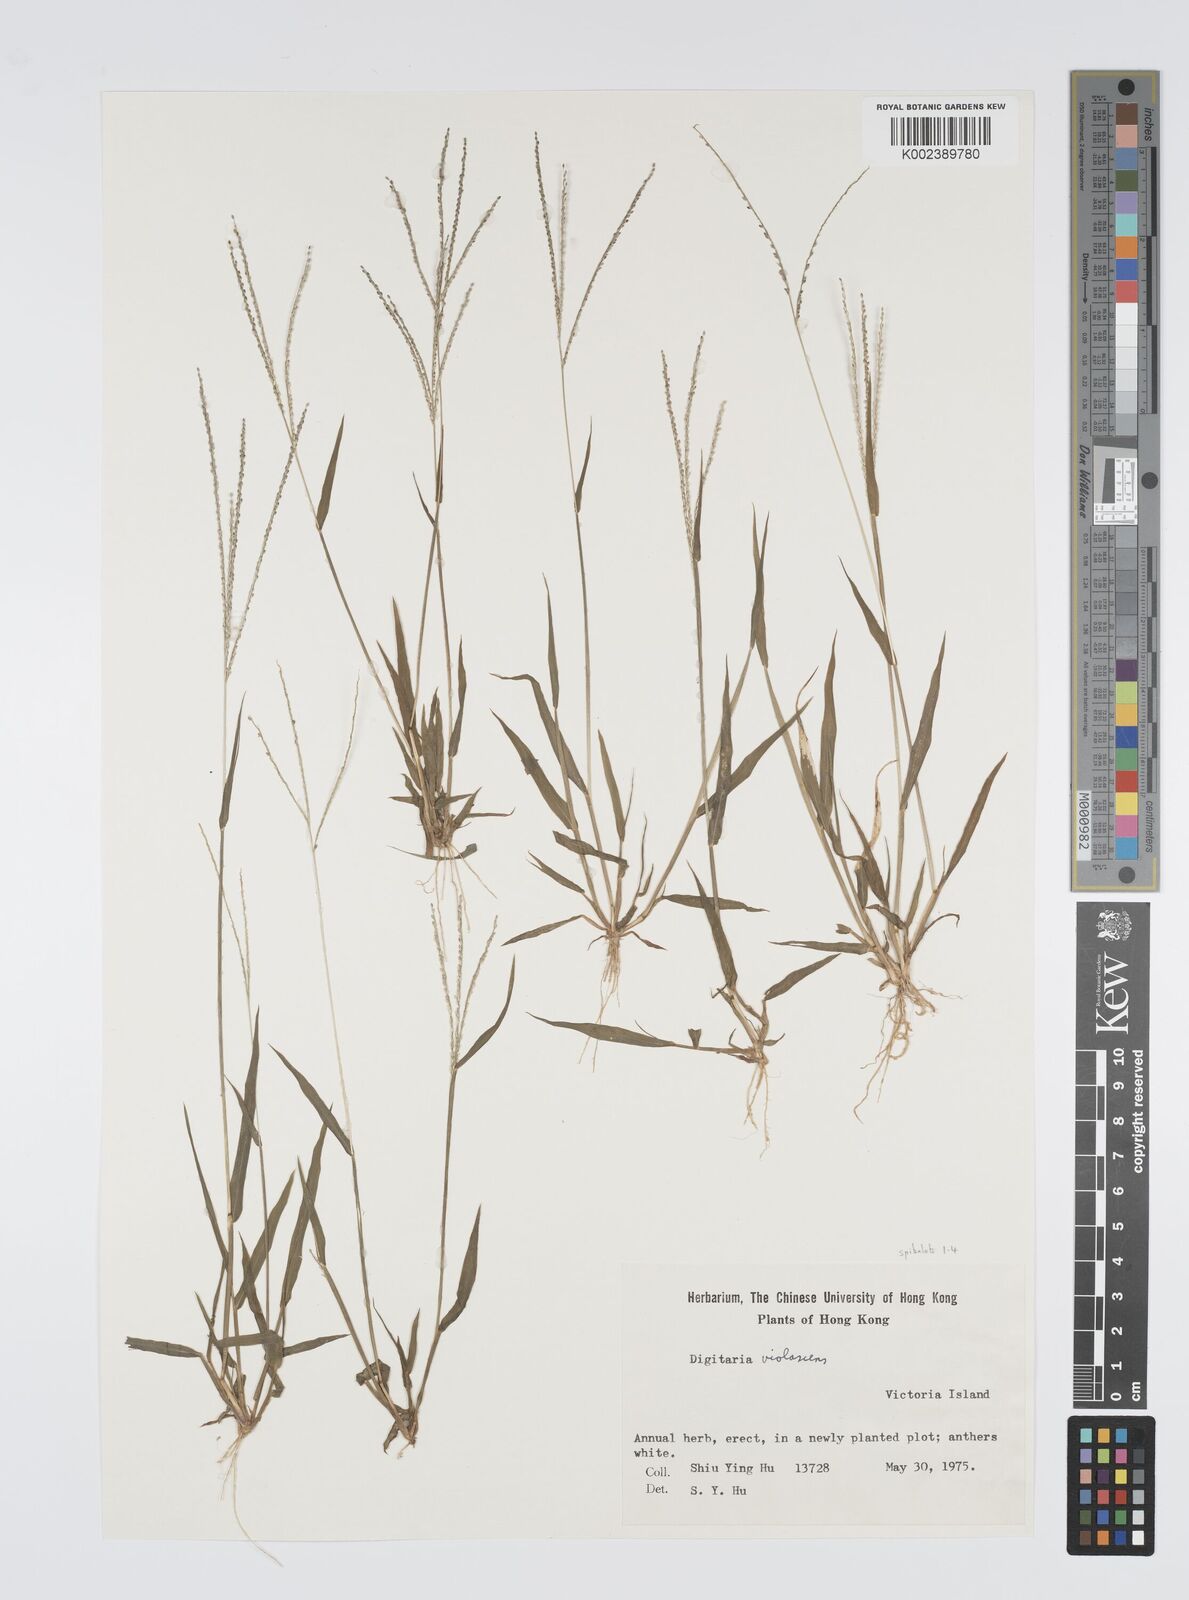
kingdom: Plantae
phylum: Tracheophyta
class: Liliopsida
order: Poales
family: Poaceae
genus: Digitaria
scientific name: Digitaria violascens
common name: Violet crabgrass
